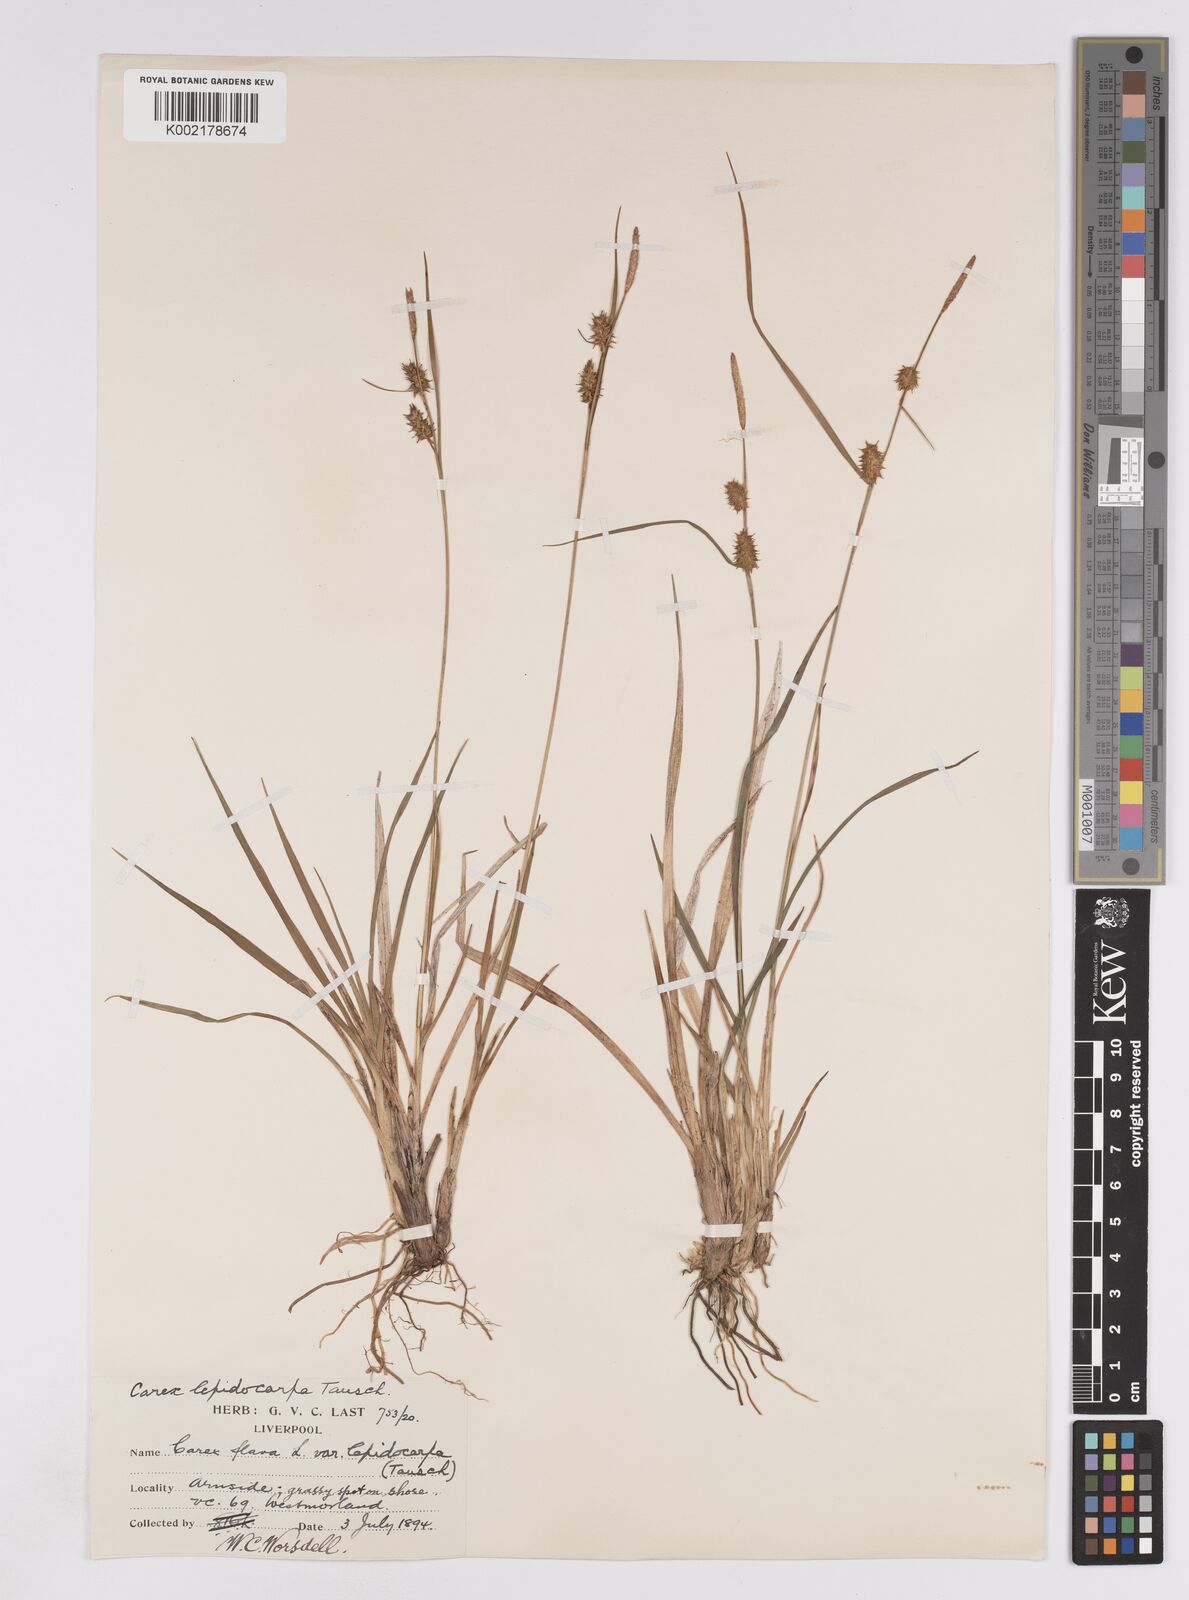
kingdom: Plantae
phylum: Tracheophyta
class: Liliopsida
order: Poales
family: Cyperaceae
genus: Carex
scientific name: Carex lepidocarpa
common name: Long-stalked yellow-sedge
